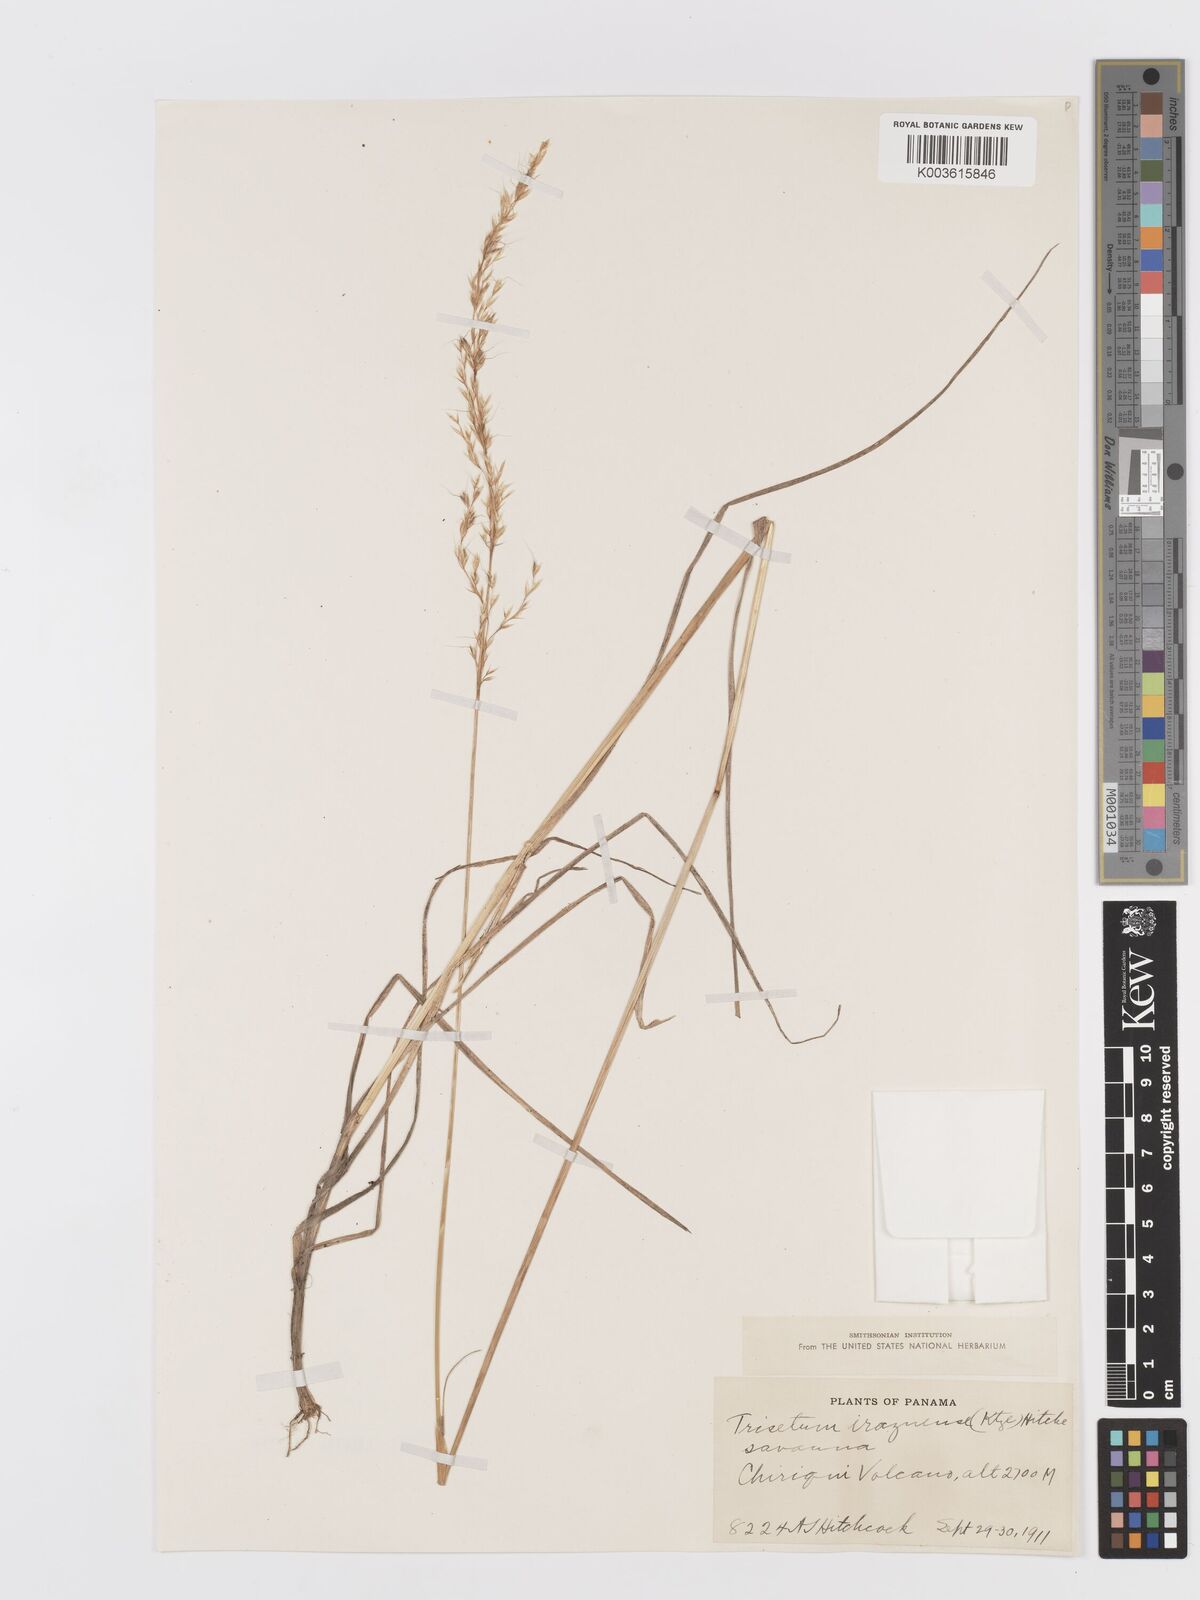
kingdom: Plantae
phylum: Tracheophyta
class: Liliopsida
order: Poales
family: Poaceae
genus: Peyritschia
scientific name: Peyritschia irazuensis
